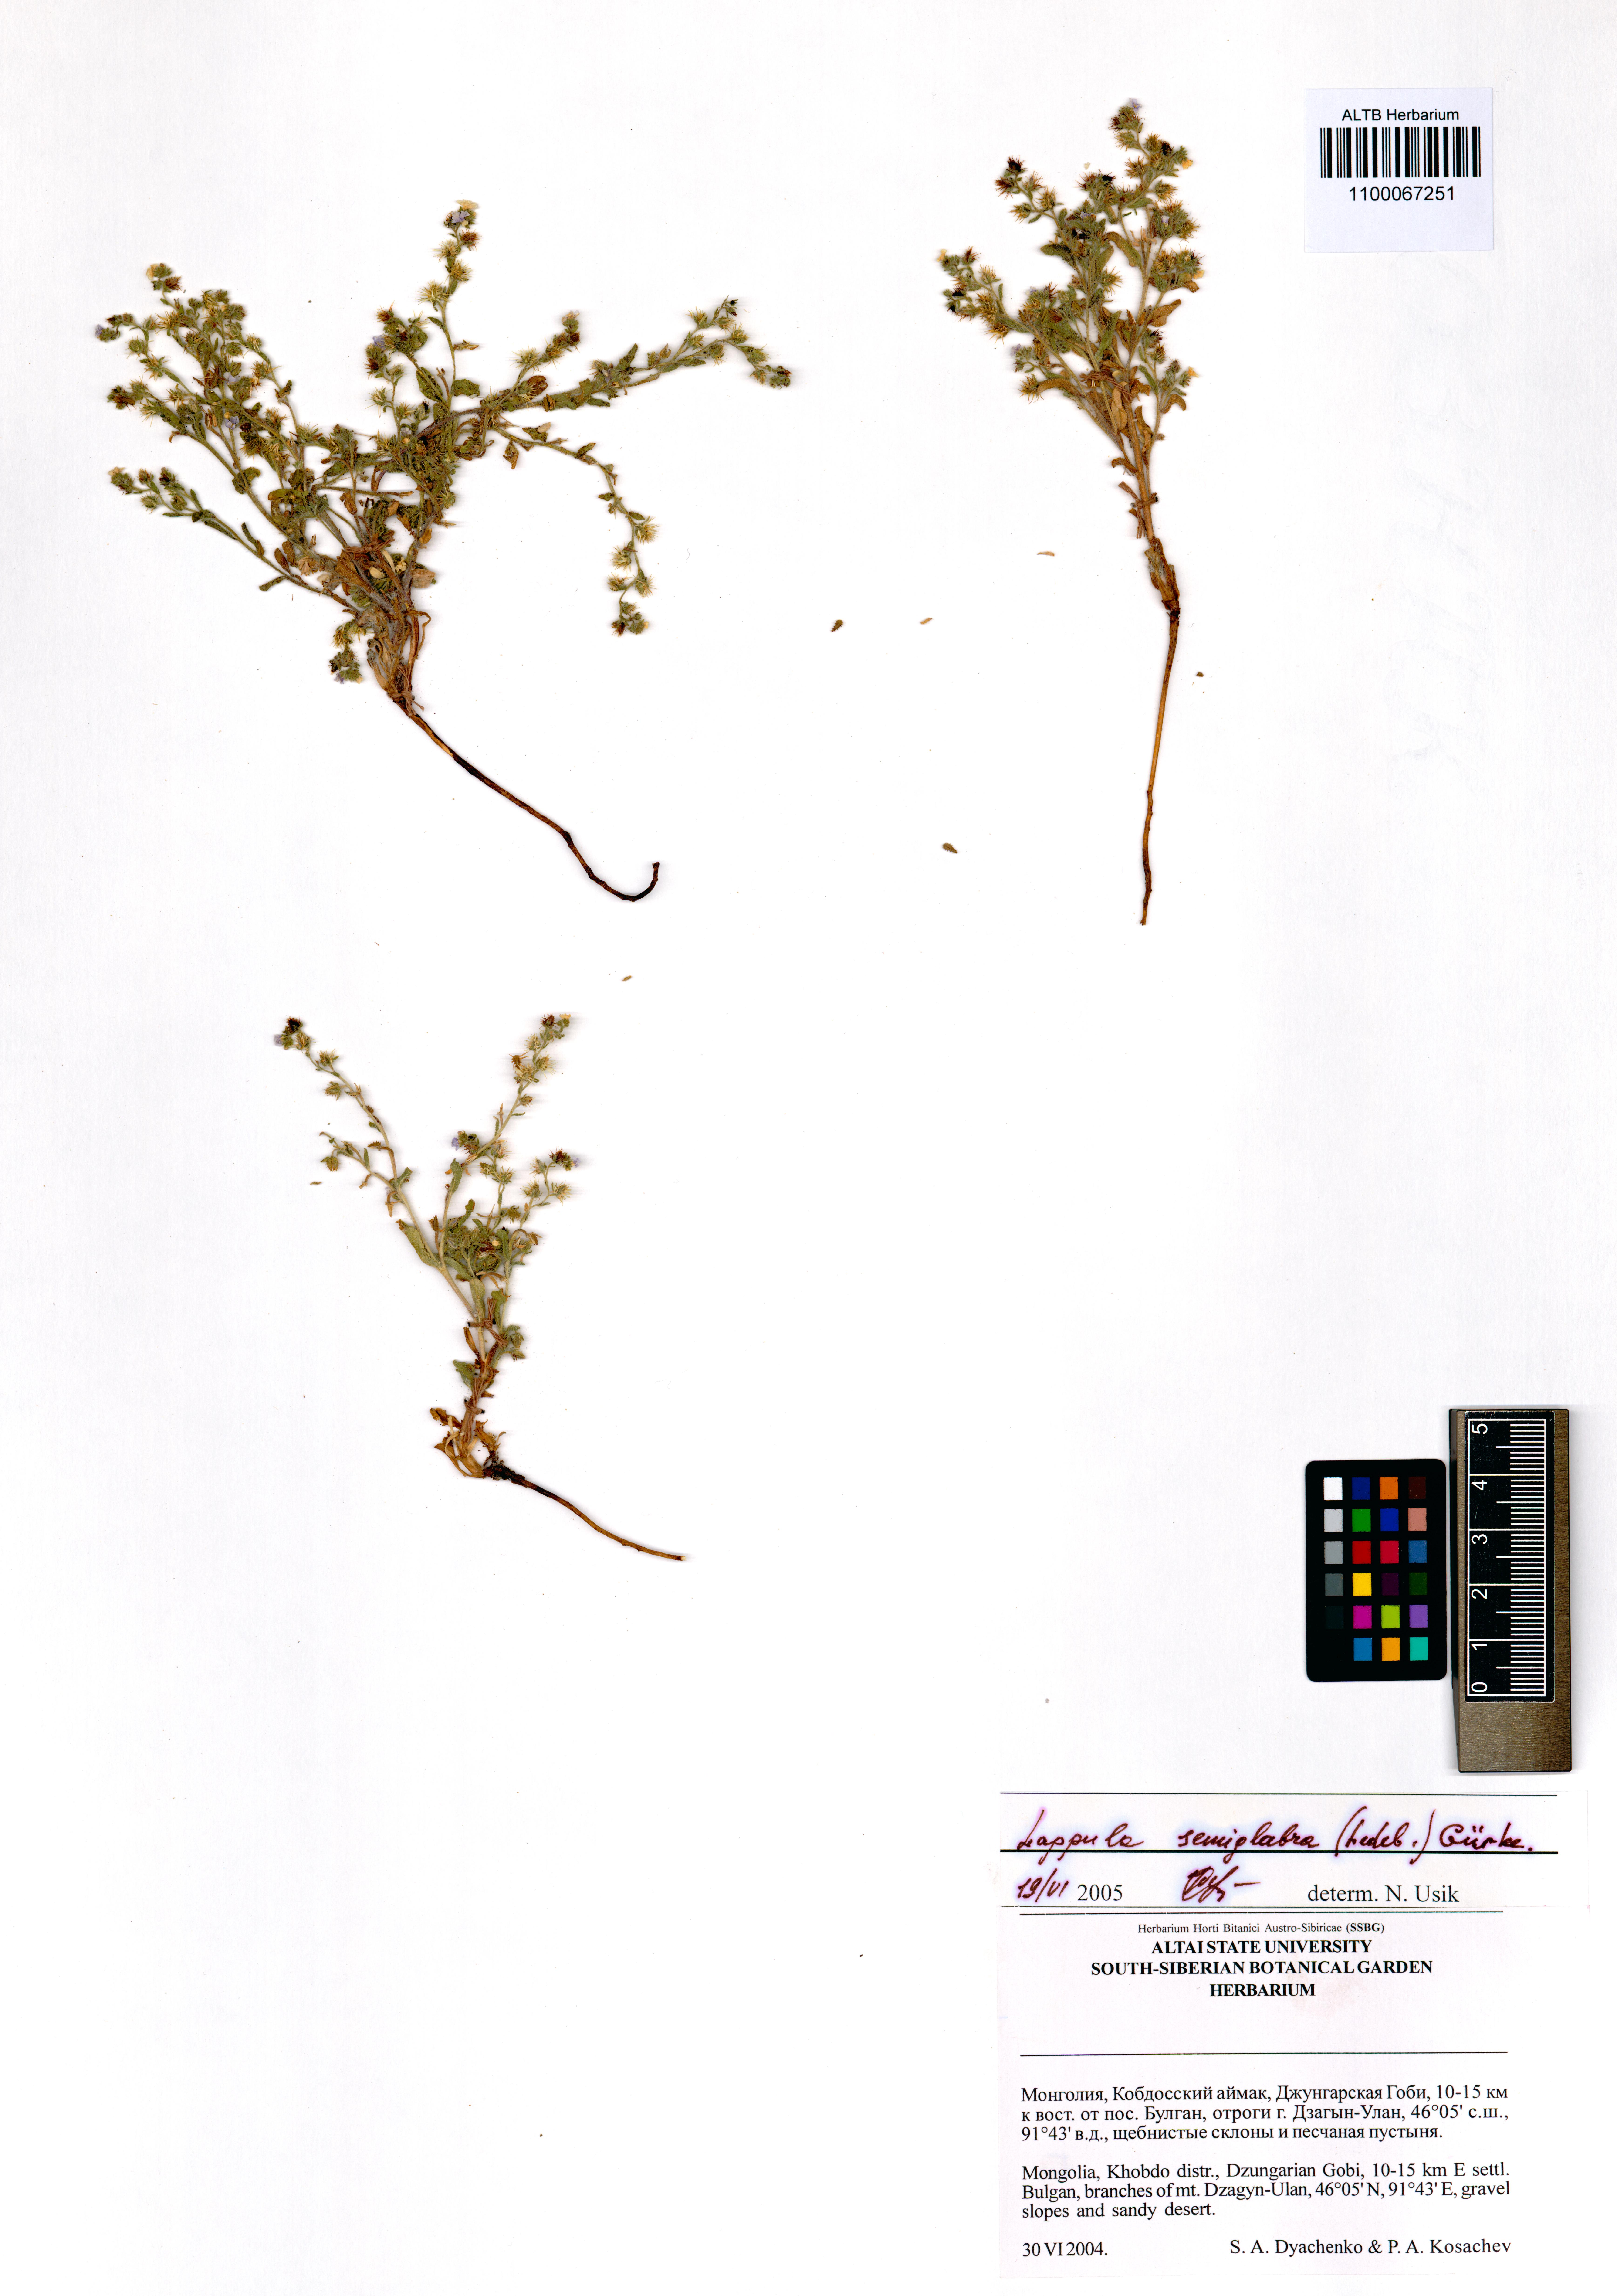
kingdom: Plantae
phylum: Tracheophyta
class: Magnoliopsida
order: Boraginales
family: Boraginaceae
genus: Lappula
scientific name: Lappula patula
